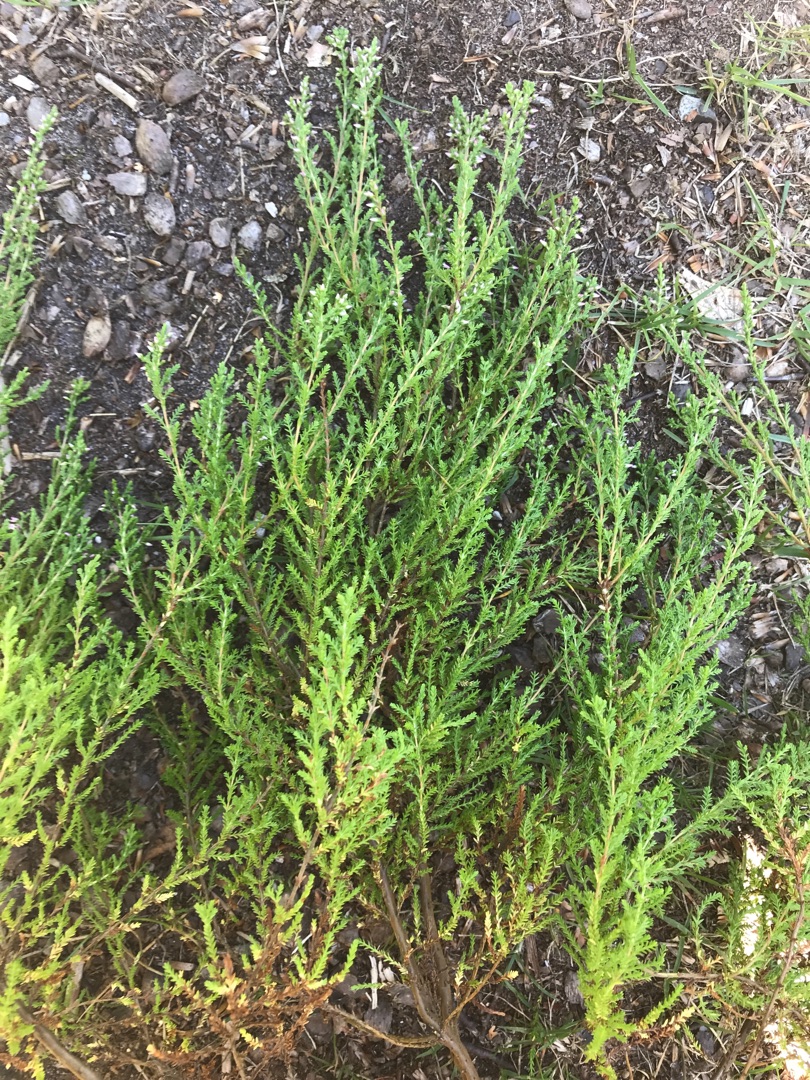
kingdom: Plantae
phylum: Tracheophyta
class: Magnoliopsida
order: Ericales
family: Ericaceae
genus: Calluna
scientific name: Calluna vulgaris
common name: Hedelyng
